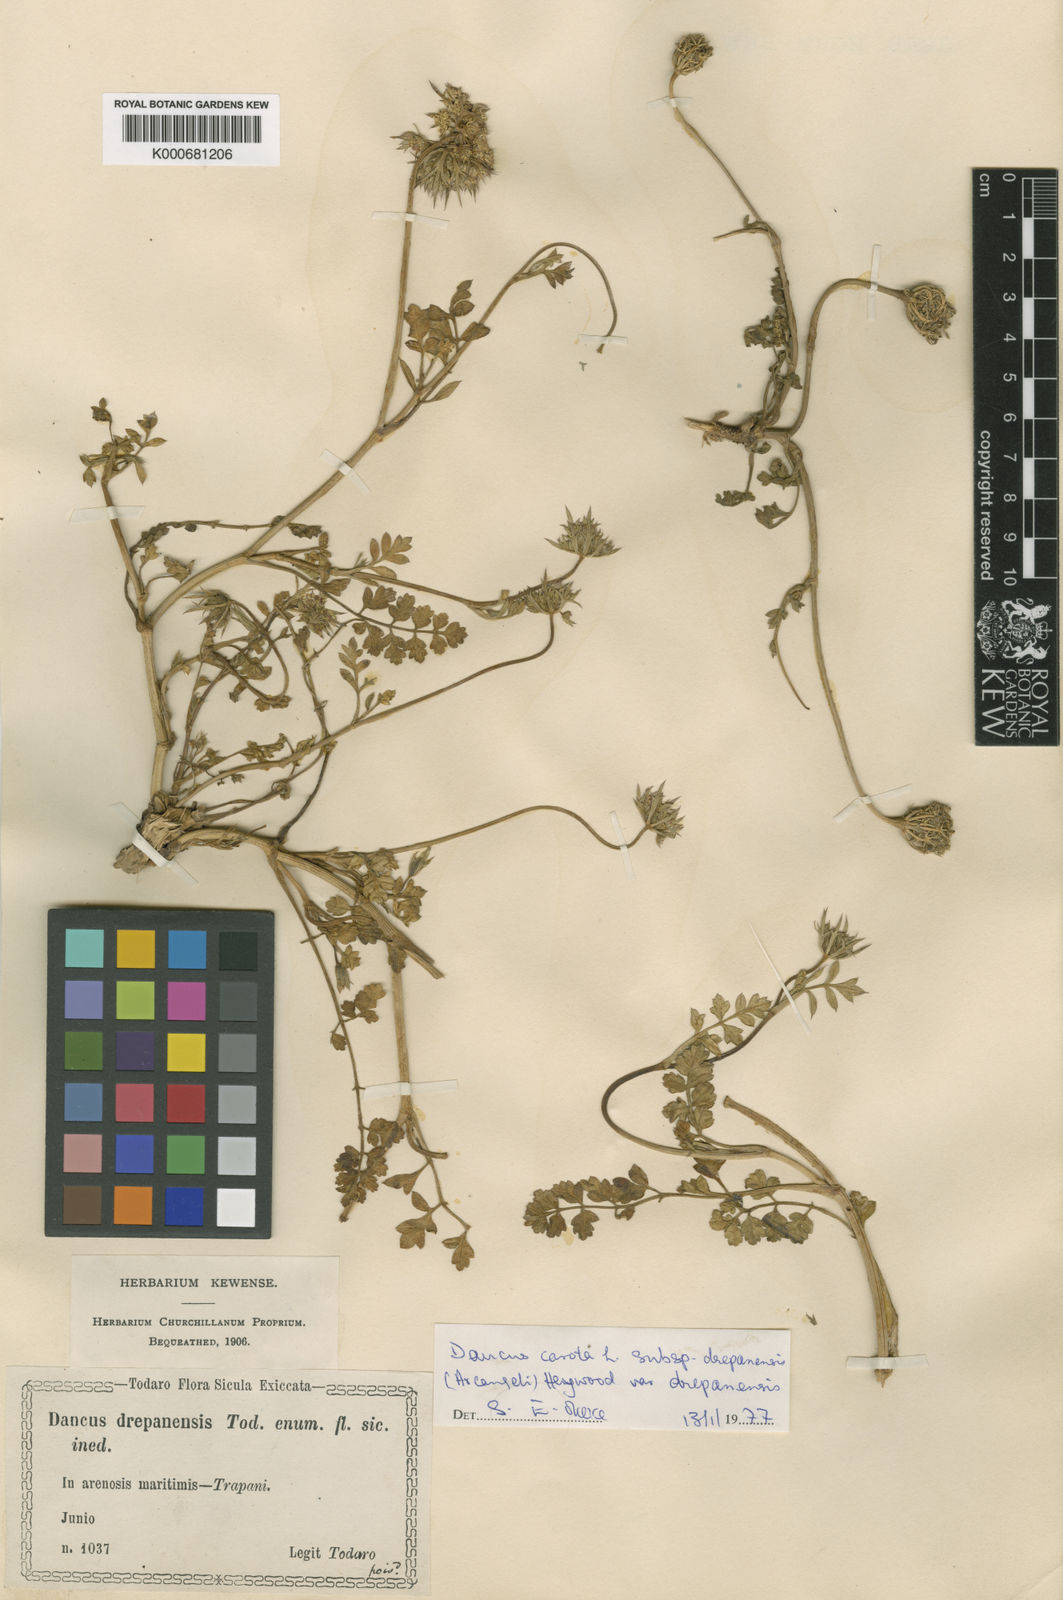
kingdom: Plantae
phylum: Tracheophyta
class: Magnoliopsida
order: Apiales
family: Apiaceae
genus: Daucus
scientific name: Daucus carota
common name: Wild carrot
